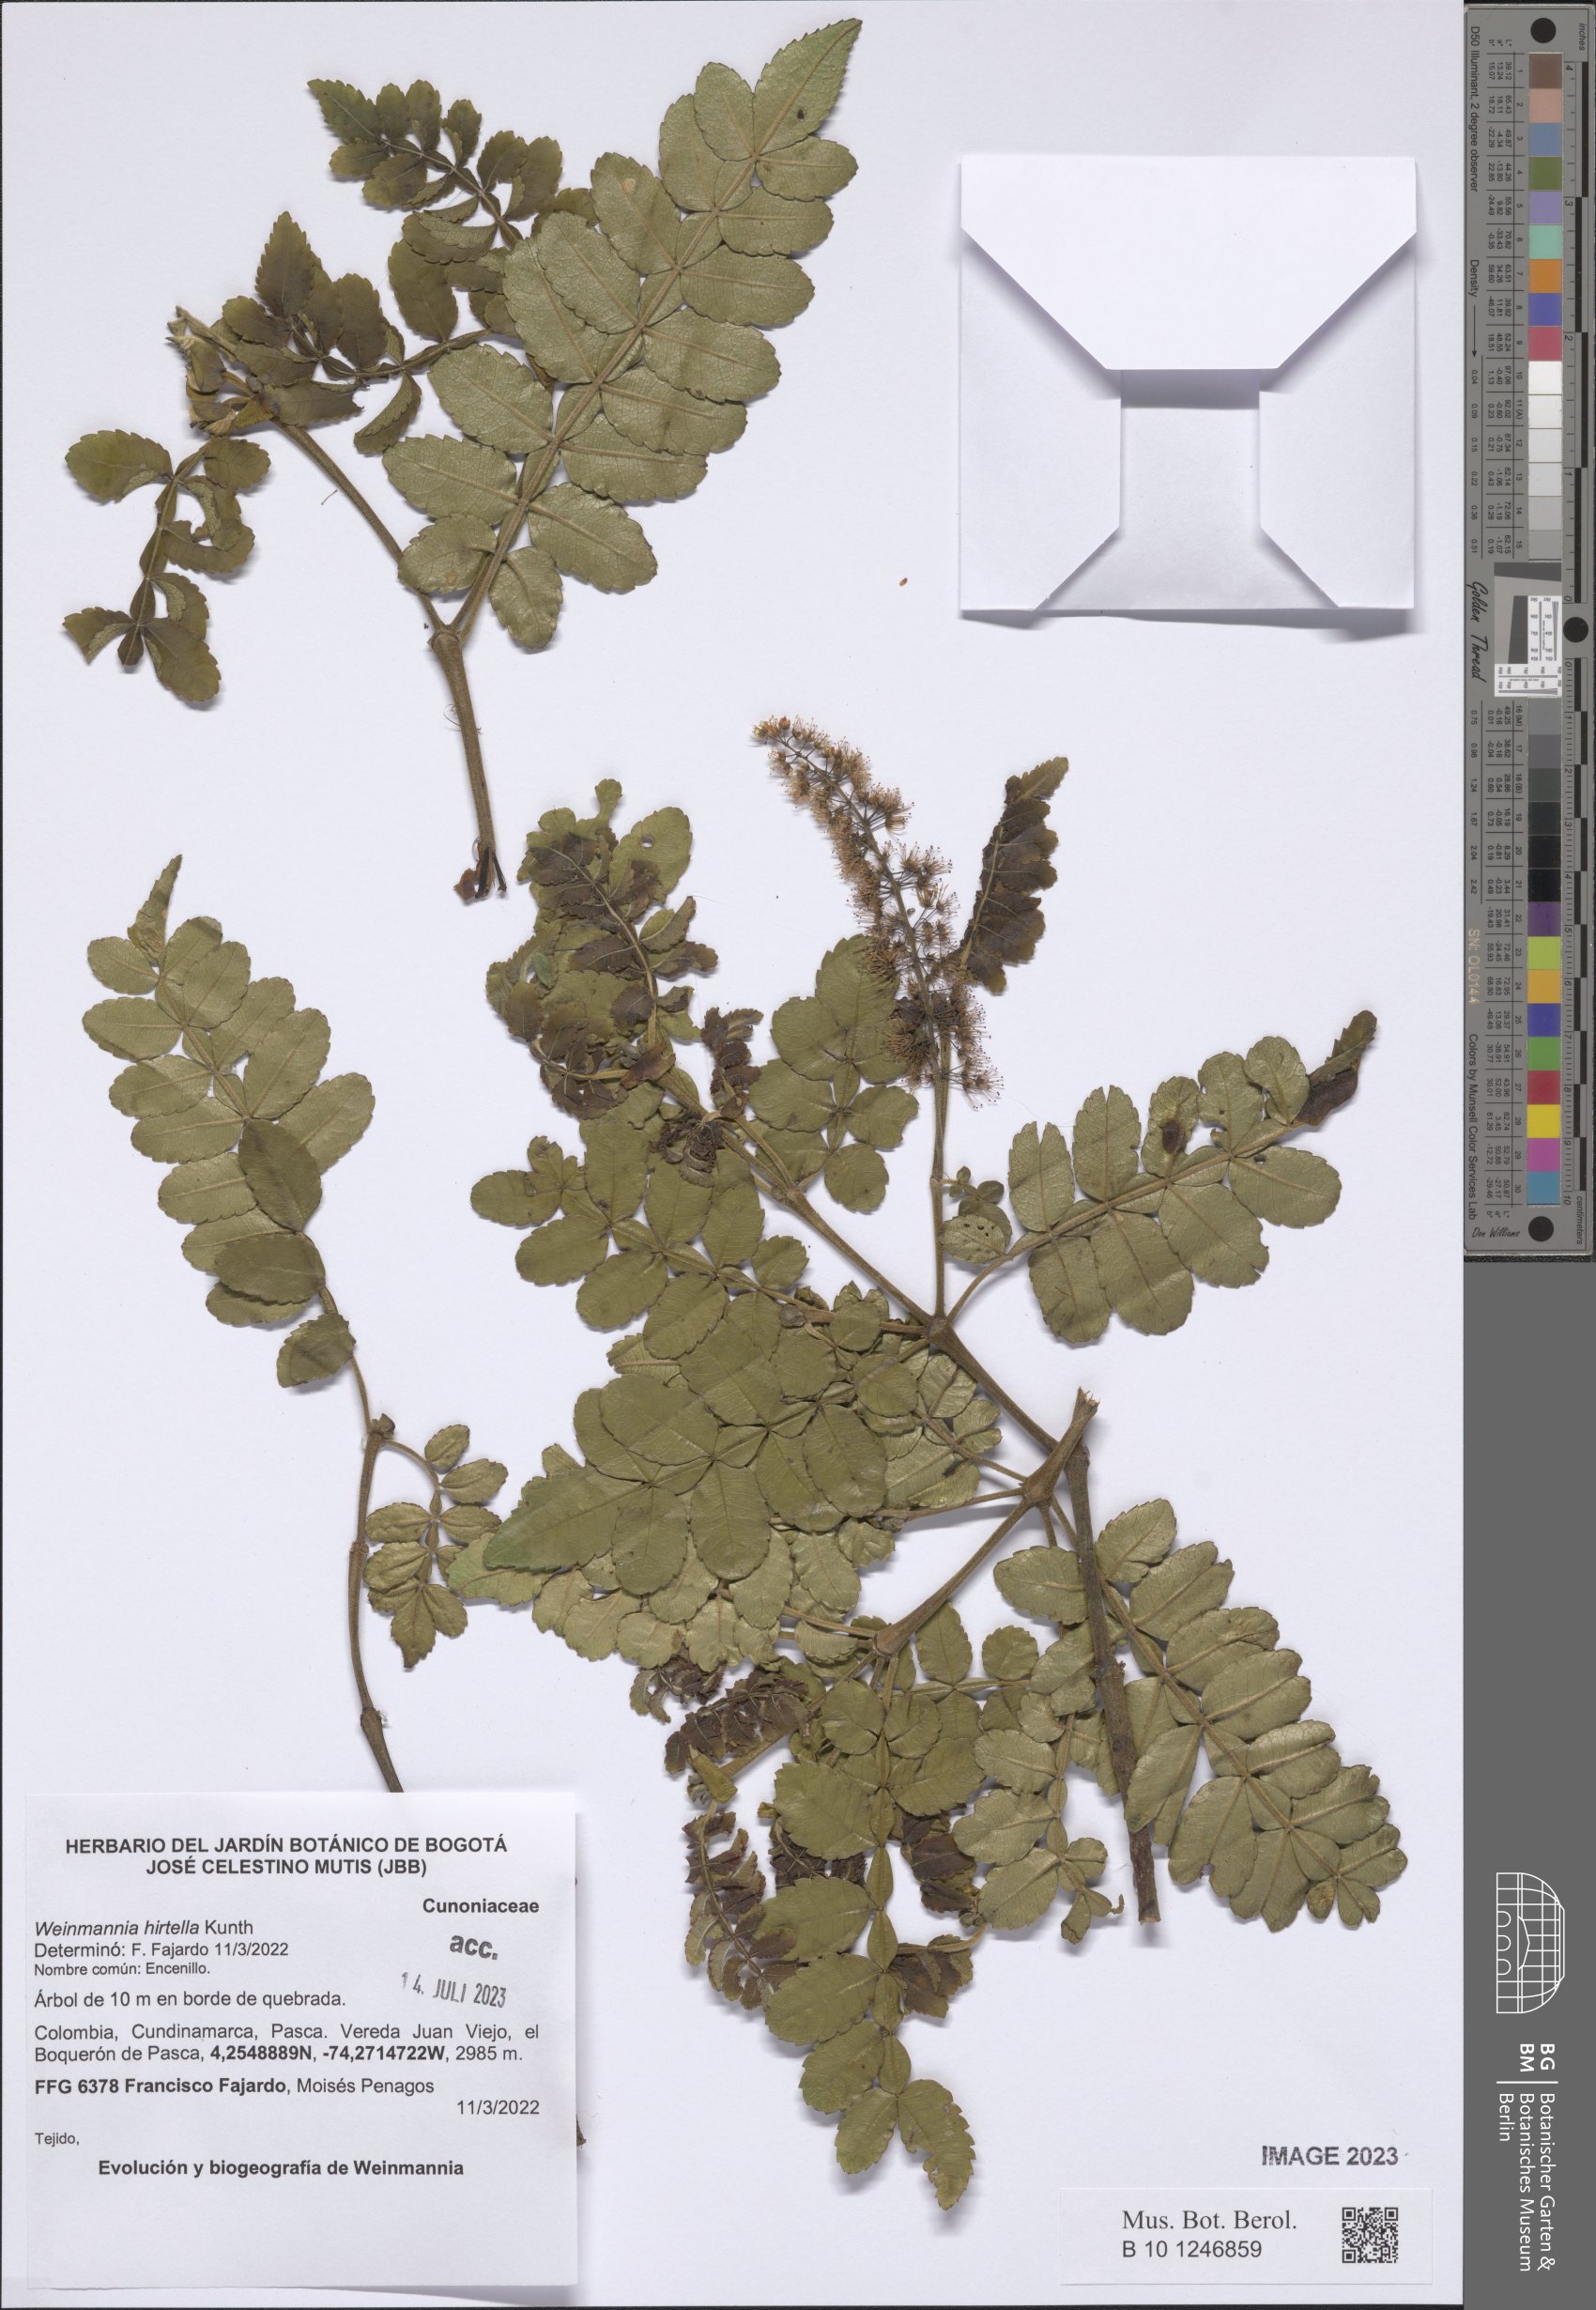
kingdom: Plantae
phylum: Tracheophyta
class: Magnoliopsida
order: Oxalidales
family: Cunoniaceae
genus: Weinmannia
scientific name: Weinmannia pinnata
